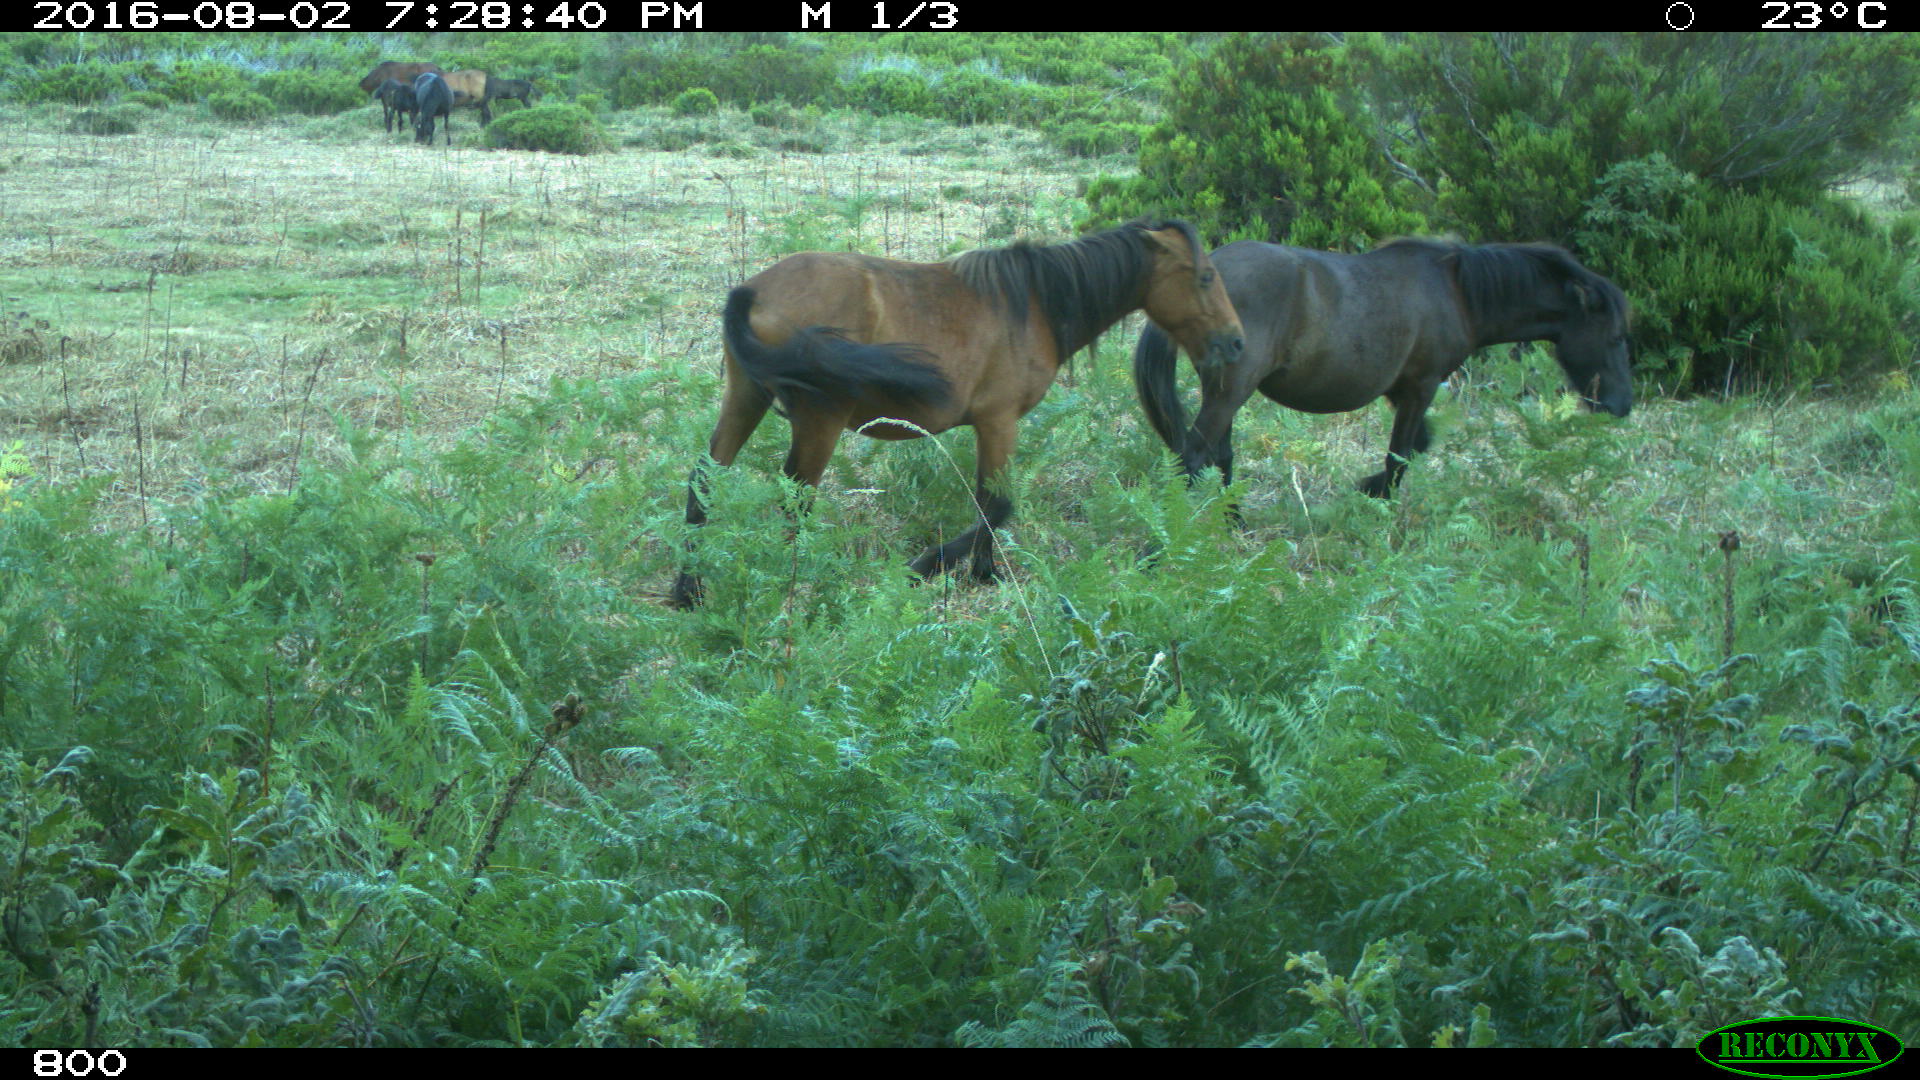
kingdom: Animalia
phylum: Chordata
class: Mammalia
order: Perissodactyla
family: Equidae
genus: Equus
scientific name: Equus caballus
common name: Horse
